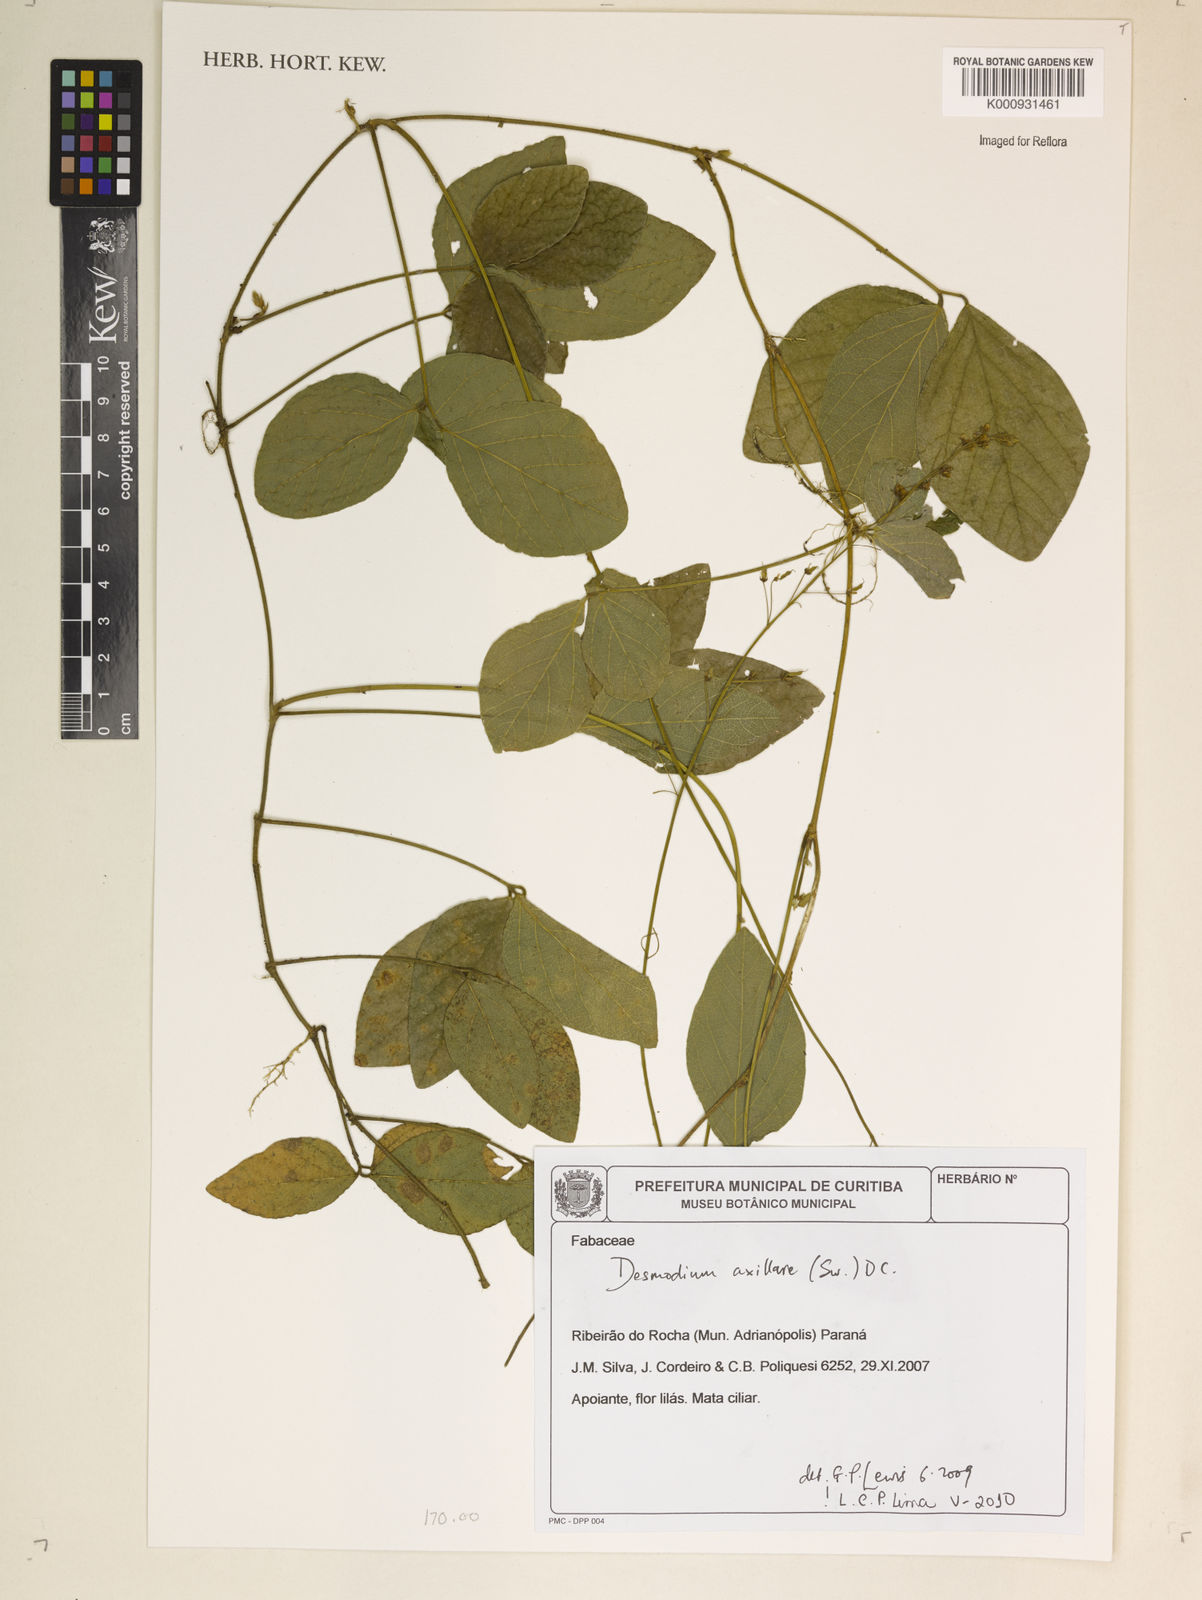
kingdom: Plantae
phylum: Tracheophyta
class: Magnoliopsida
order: Fabales
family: Fabaceae
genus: Desmodium
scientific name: Desmodium axillare
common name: Wire with
